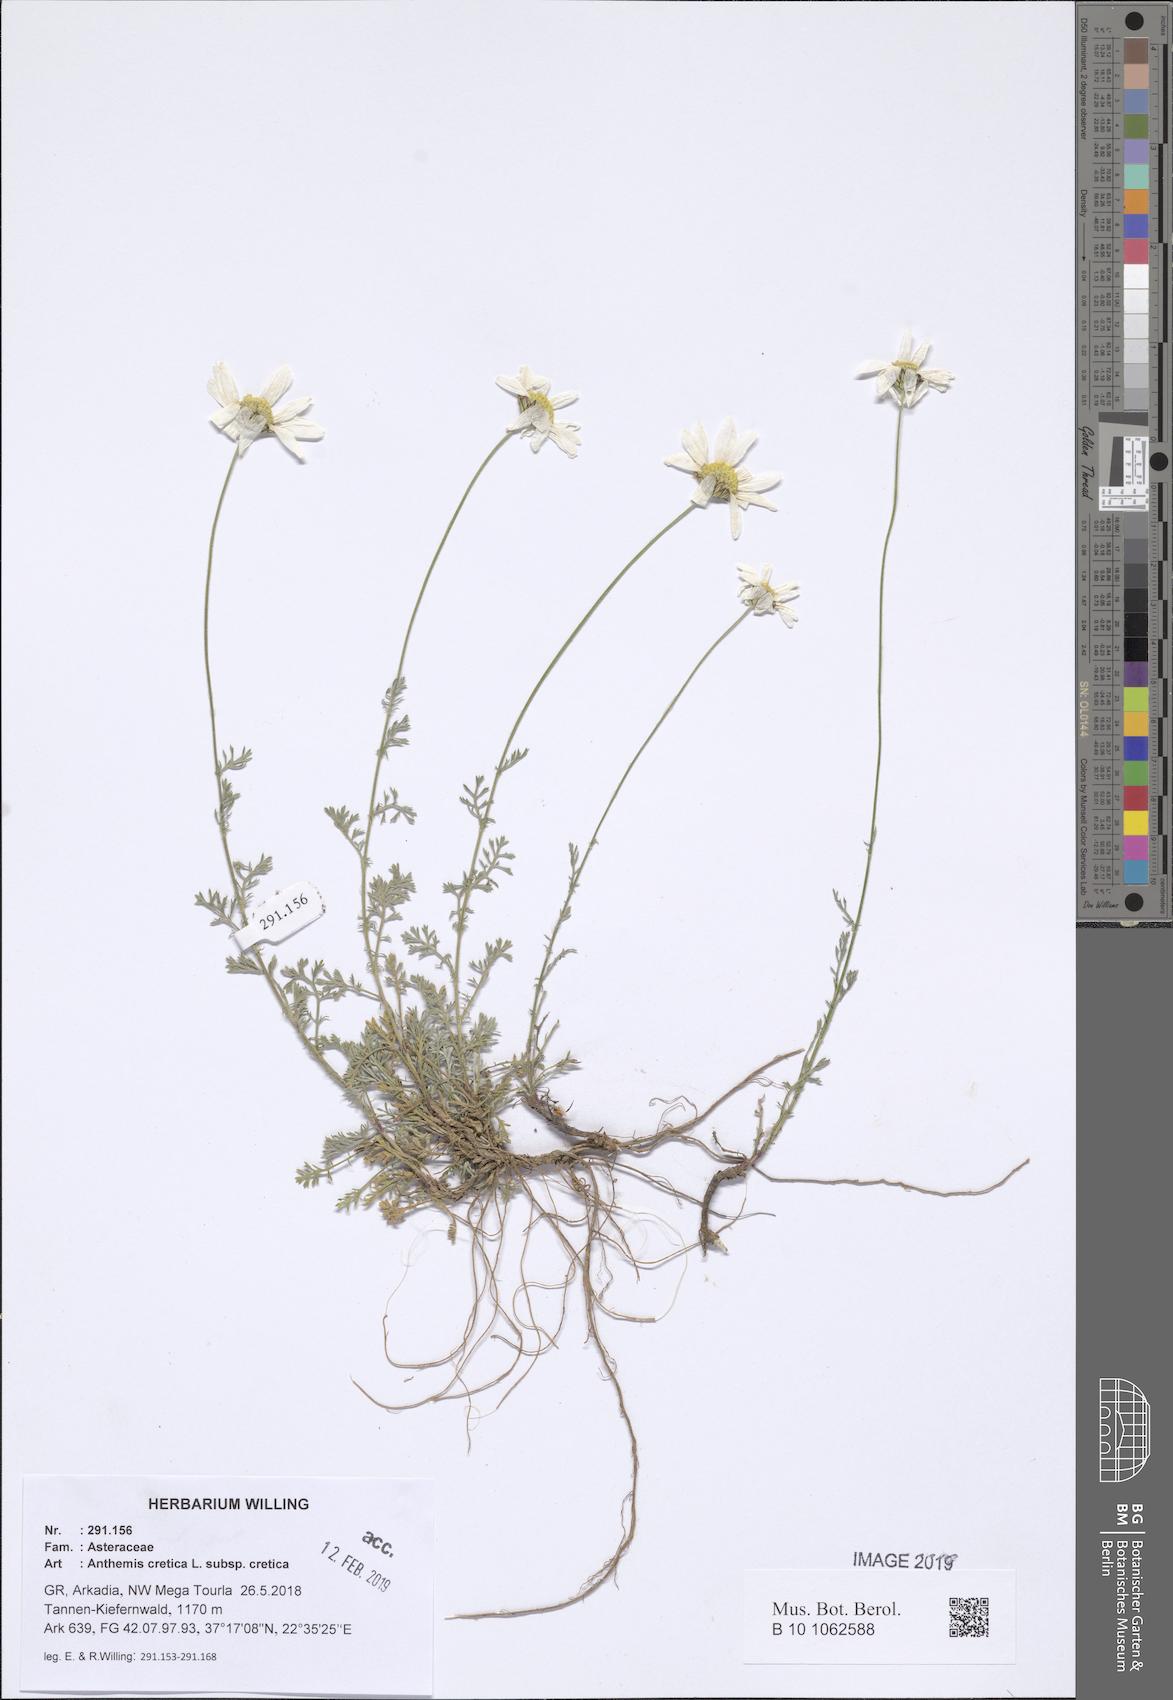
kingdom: Plantae
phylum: Tracheophyta
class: Magnoliopsida
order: Asterales
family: Asteraceae
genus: Anthemis
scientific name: Anthemis cretica
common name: Mountain dog-daisy
